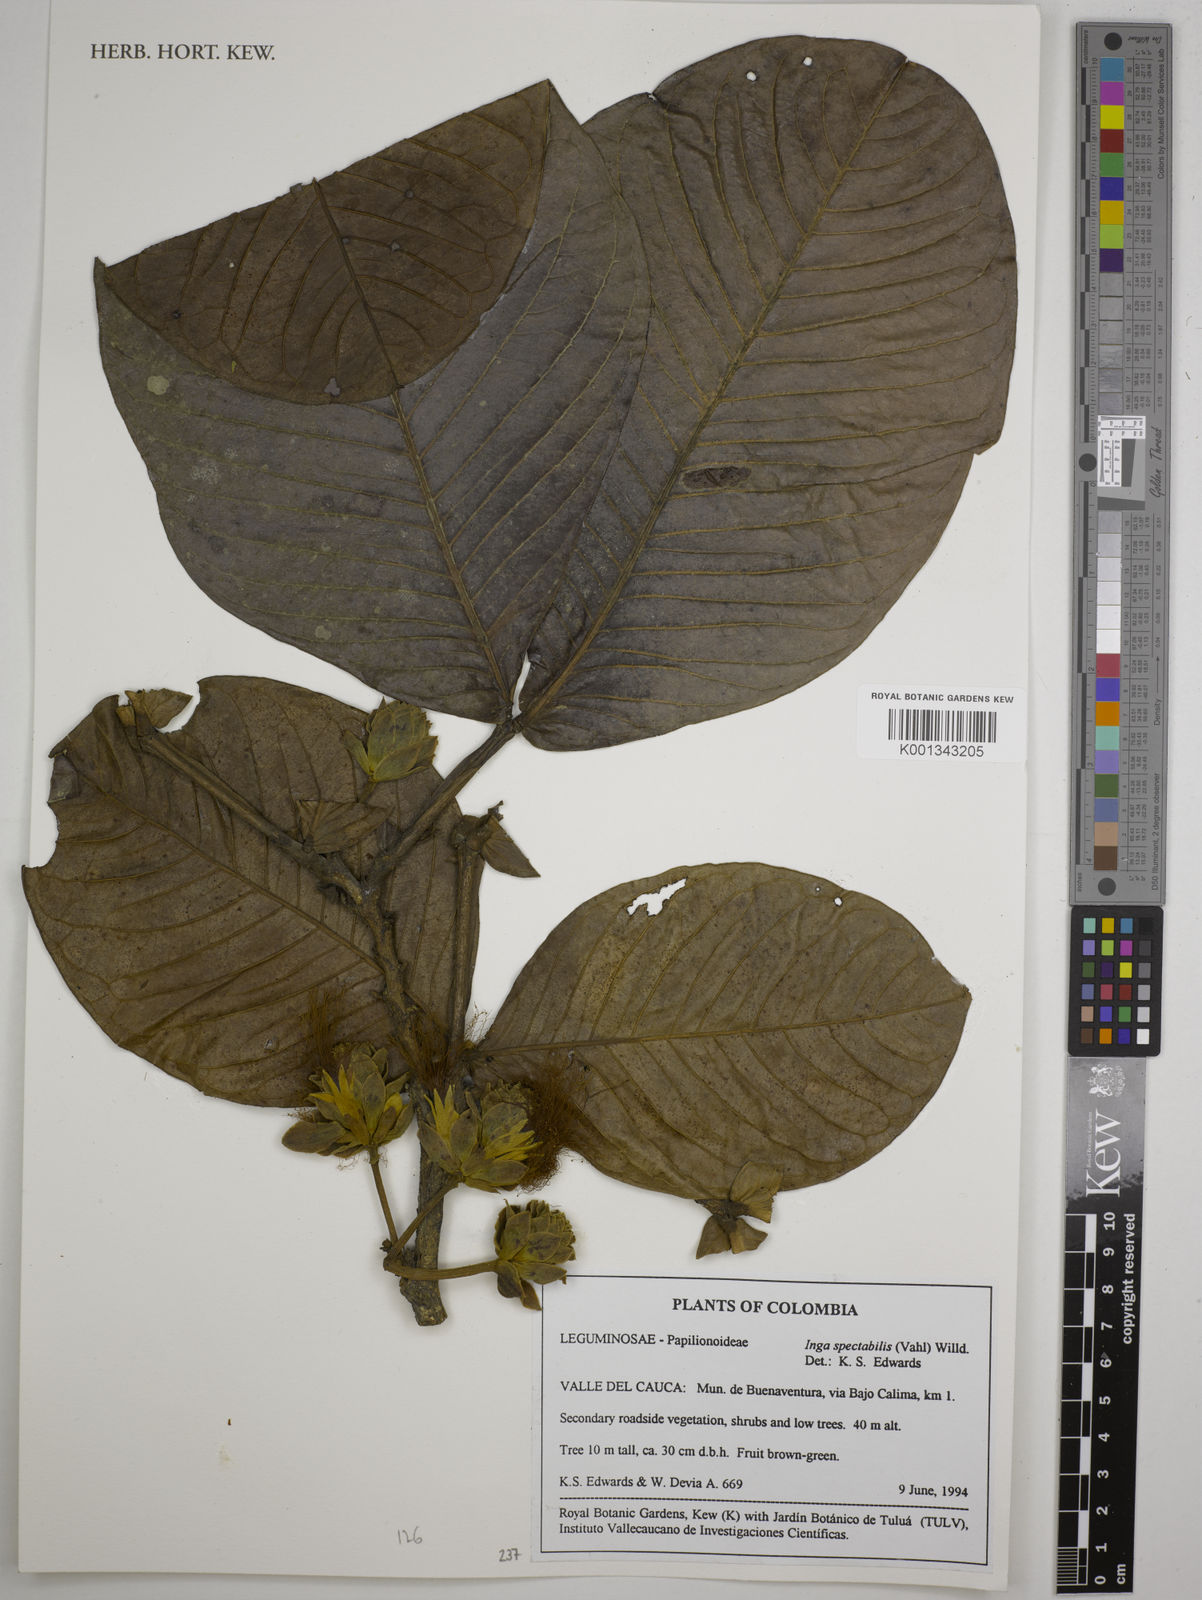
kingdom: Plantae
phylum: Tracheophyta
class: Magnoliopsida
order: Fabales
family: Fabaceae
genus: Inga
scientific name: Inga spectabilis
